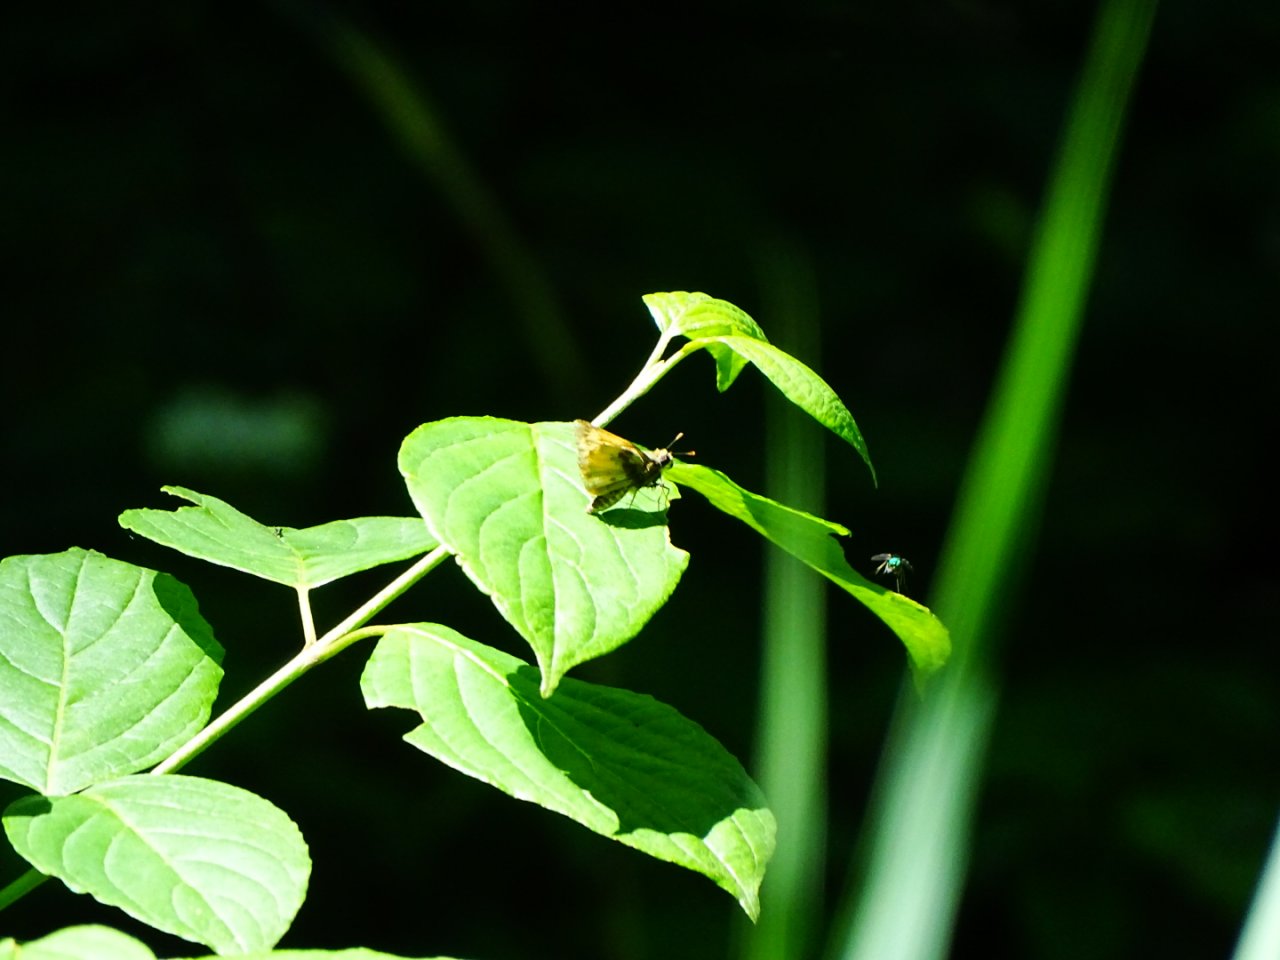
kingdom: Animalia
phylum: Arthropoda
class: Insecta
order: Lepidoptera
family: Hesperiidae
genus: Lon
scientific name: Lon zabulon
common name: Zabulon Skipper
